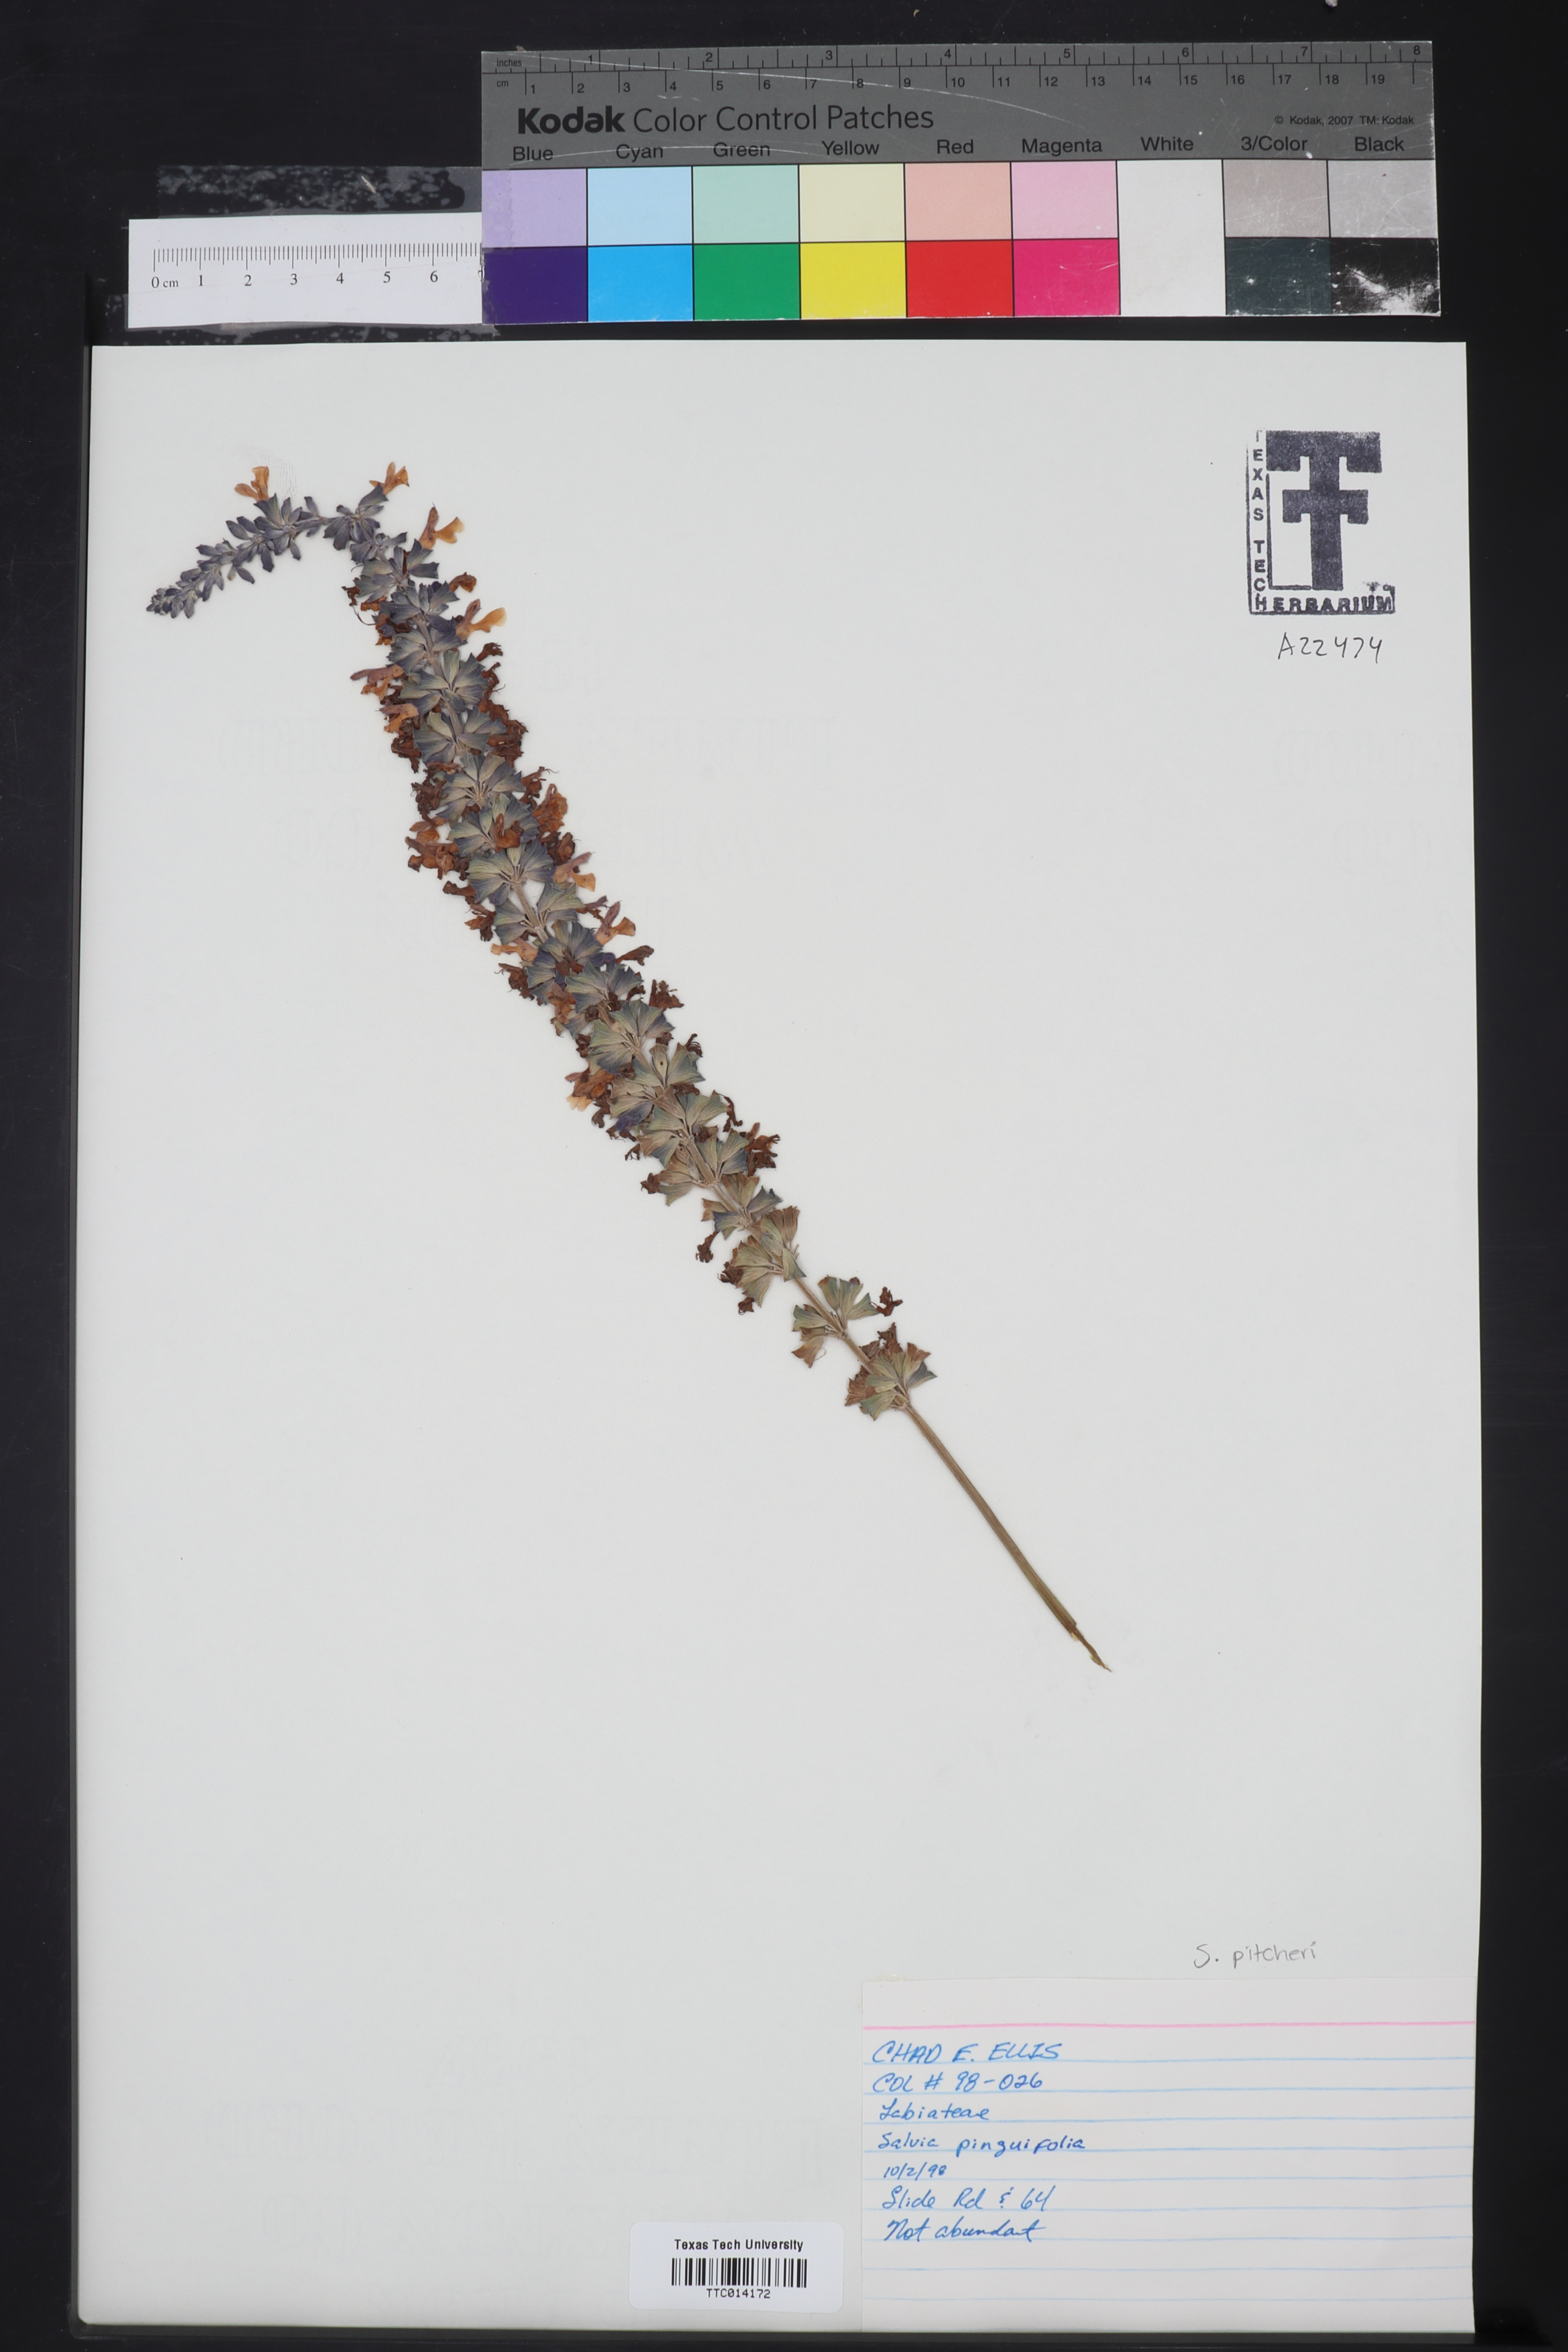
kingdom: Plantae
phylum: Tracheophyta
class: Magnoliopsida
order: Lamiales
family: Lamiaceae
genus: Salvia
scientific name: Salvia pinguifolia
